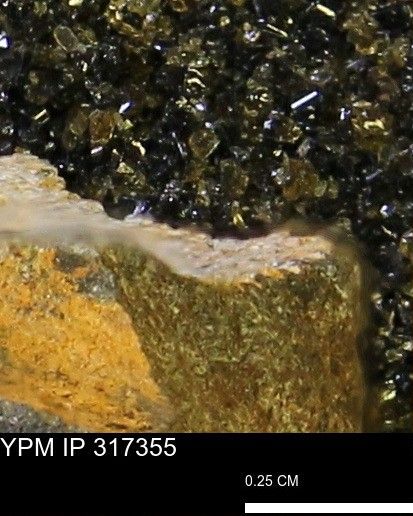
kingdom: Animalia
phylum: Mollusca
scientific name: Mollusca
